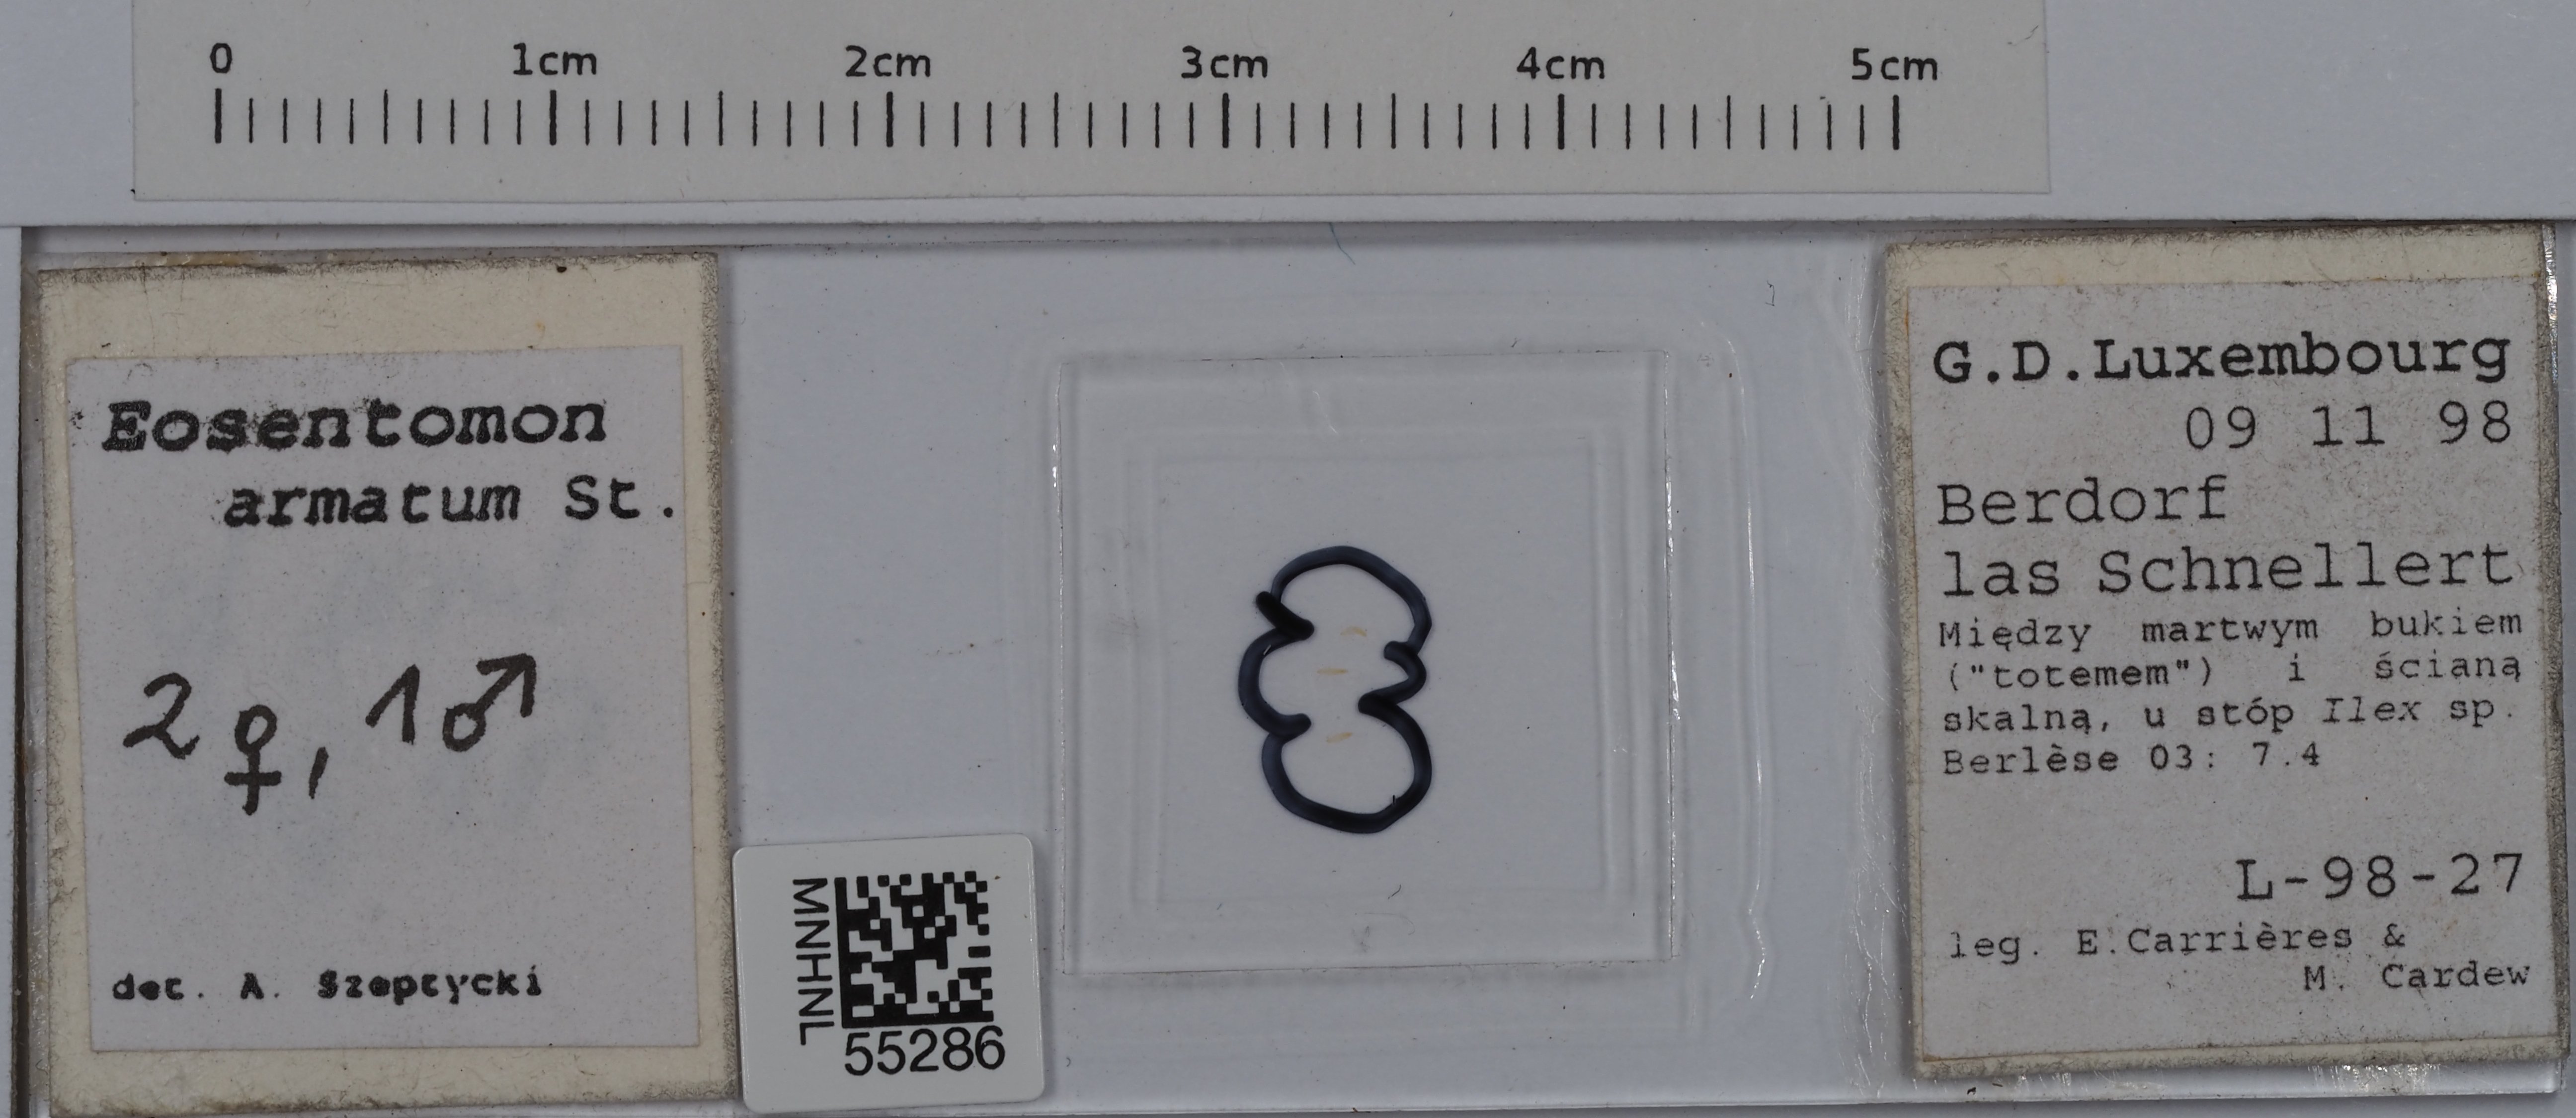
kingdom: Animalia
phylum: Arthropoda
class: Protura
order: Protura
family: Eosentomidae
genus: Eosentomon
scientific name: Eosentomon armatum
